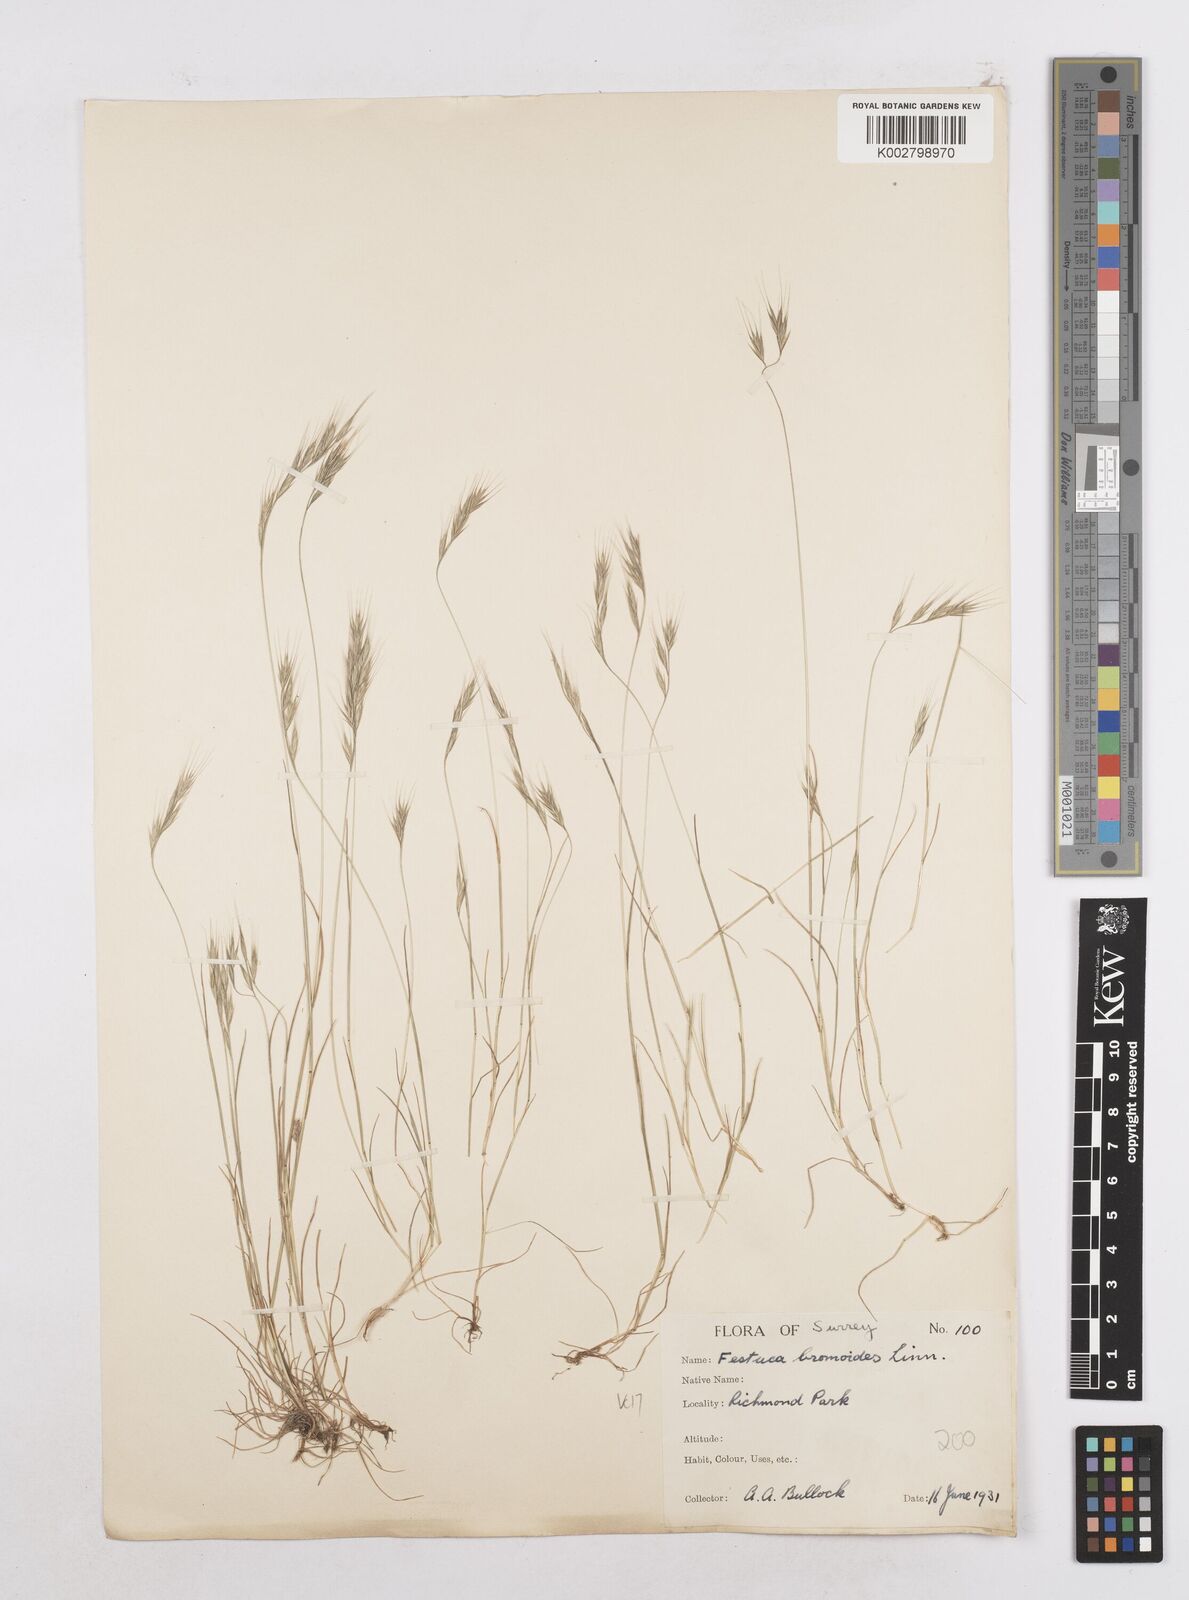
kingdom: Plantae
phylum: Tracheophyta
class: Liliopsida
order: Poales
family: Poaceae
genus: Festuca
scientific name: Festuca bromoides
